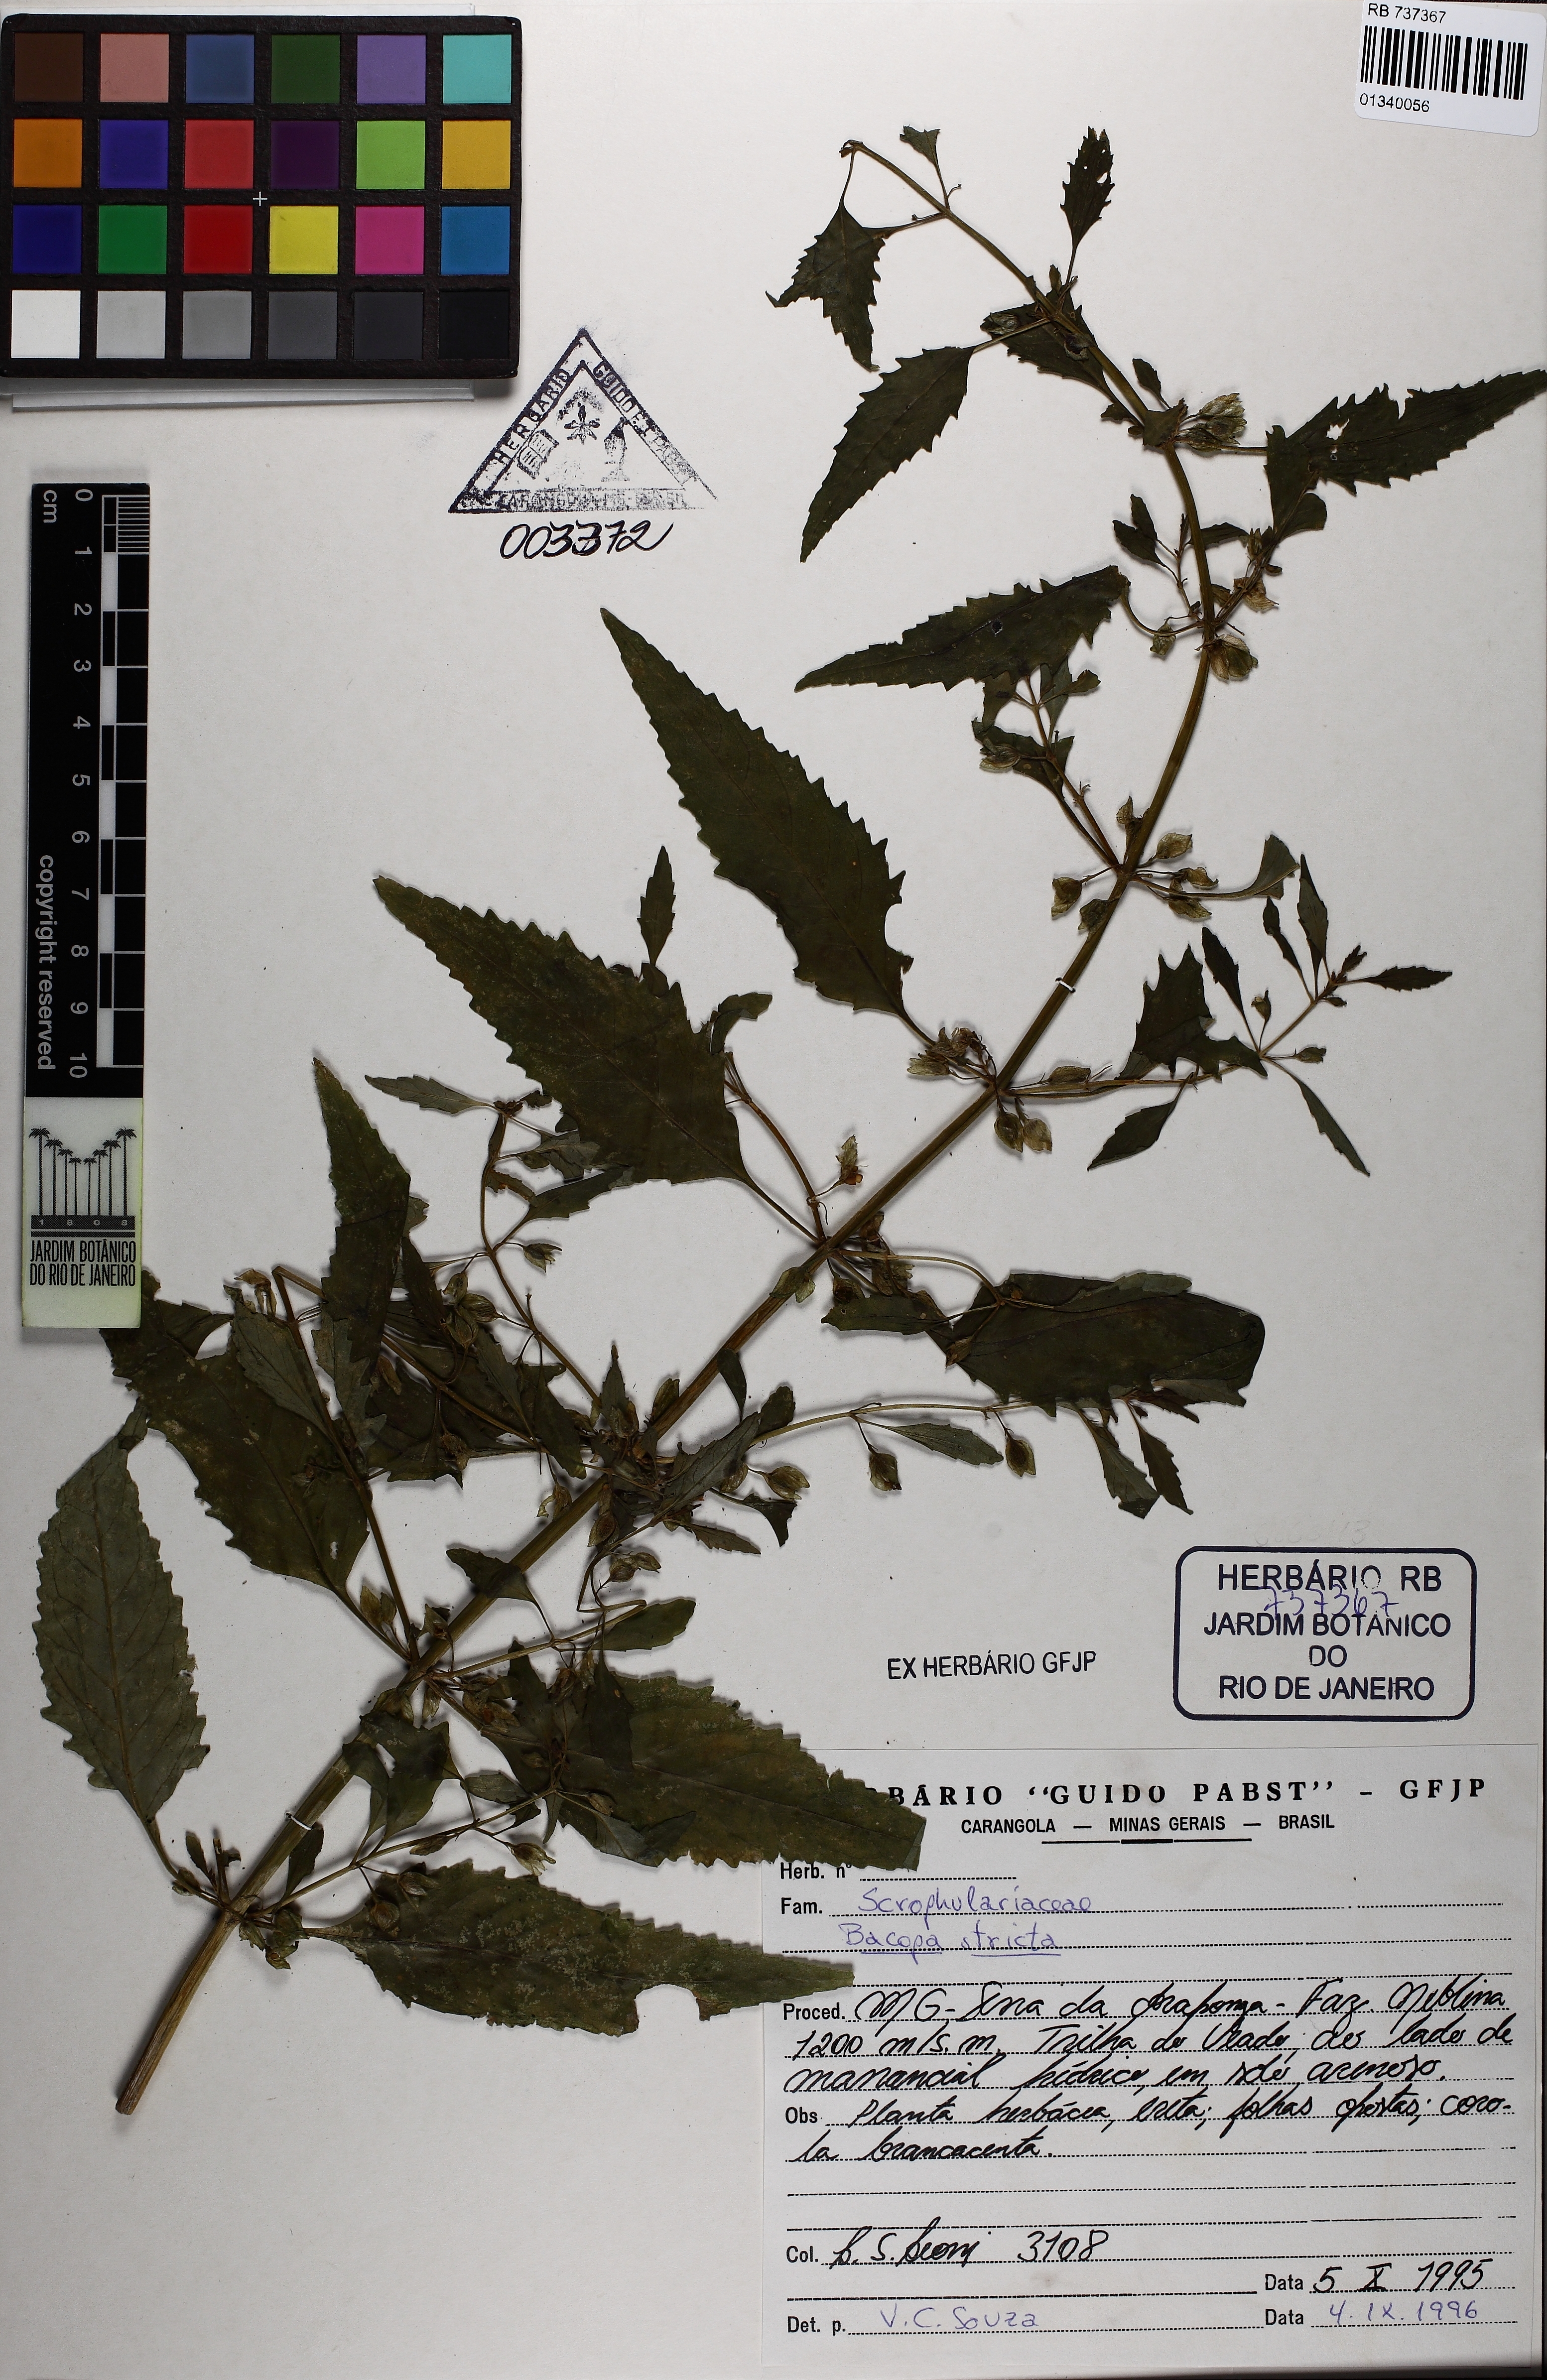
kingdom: Plantae
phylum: Tracheophyta
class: Magnoliopsida
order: Lamiales
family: Plantaginaceae
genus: Bacopa
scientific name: Bacopa stricta
